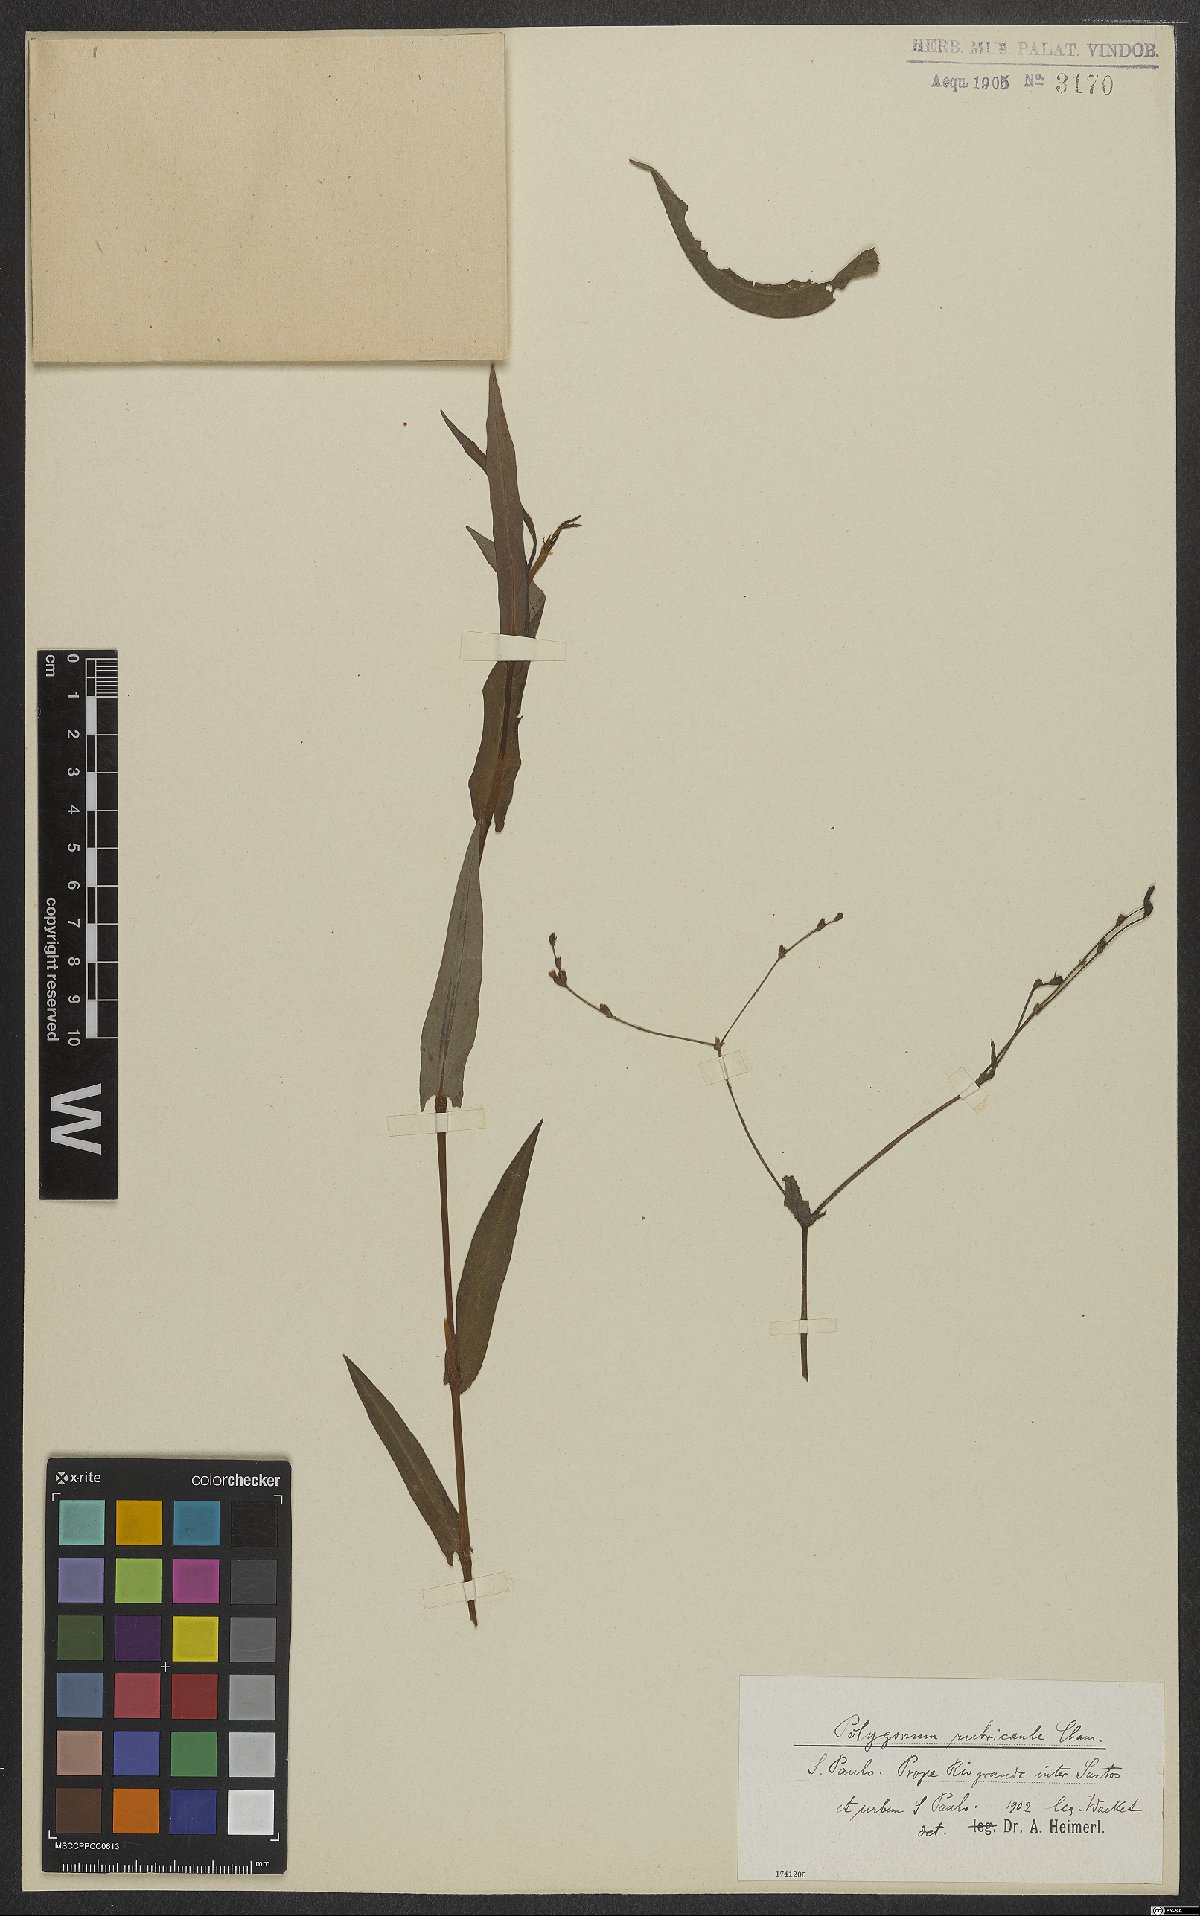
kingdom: Plantae
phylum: Tracheophyta
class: Magnoliopsida
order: Caryophyllales
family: Polygonaceae
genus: Persicaria
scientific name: Persicaria rubricaulis
